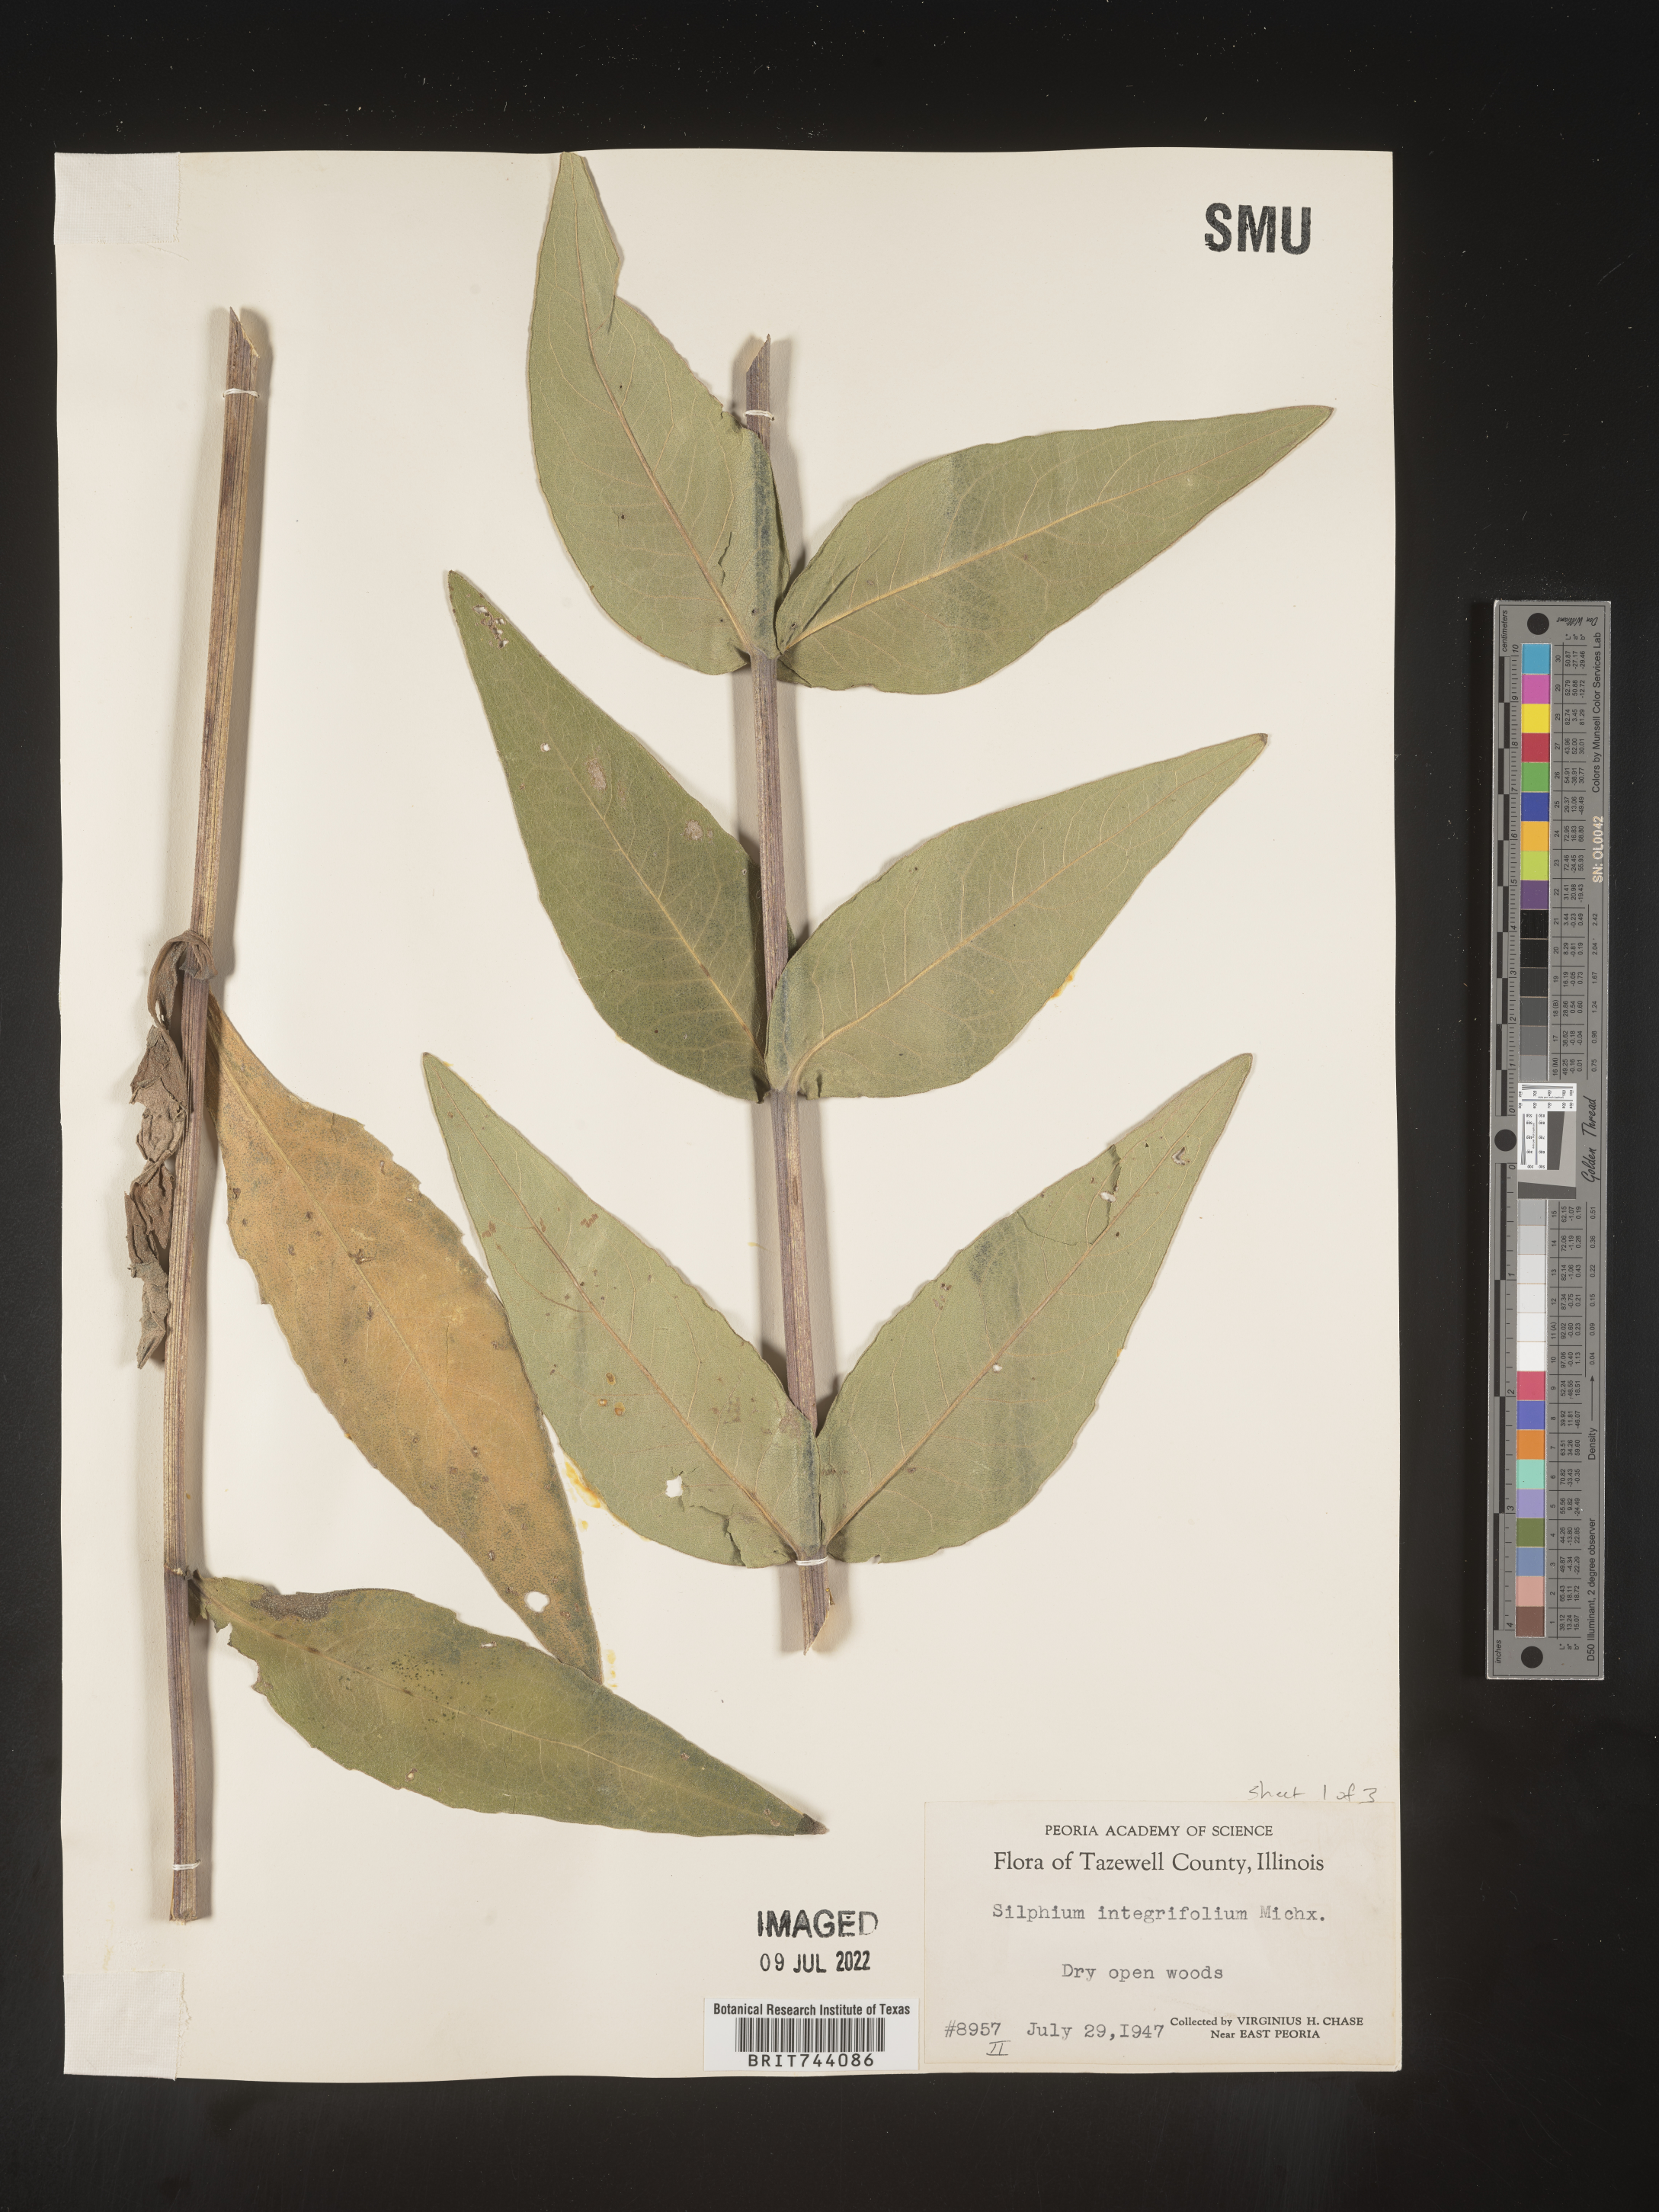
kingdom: Plantae
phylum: Tracheophyta
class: Magnoliopsida
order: Asterales
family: Asteraceae
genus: Silphium
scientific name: Silphium integrifolium
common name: Whole-leaf rosinweed
